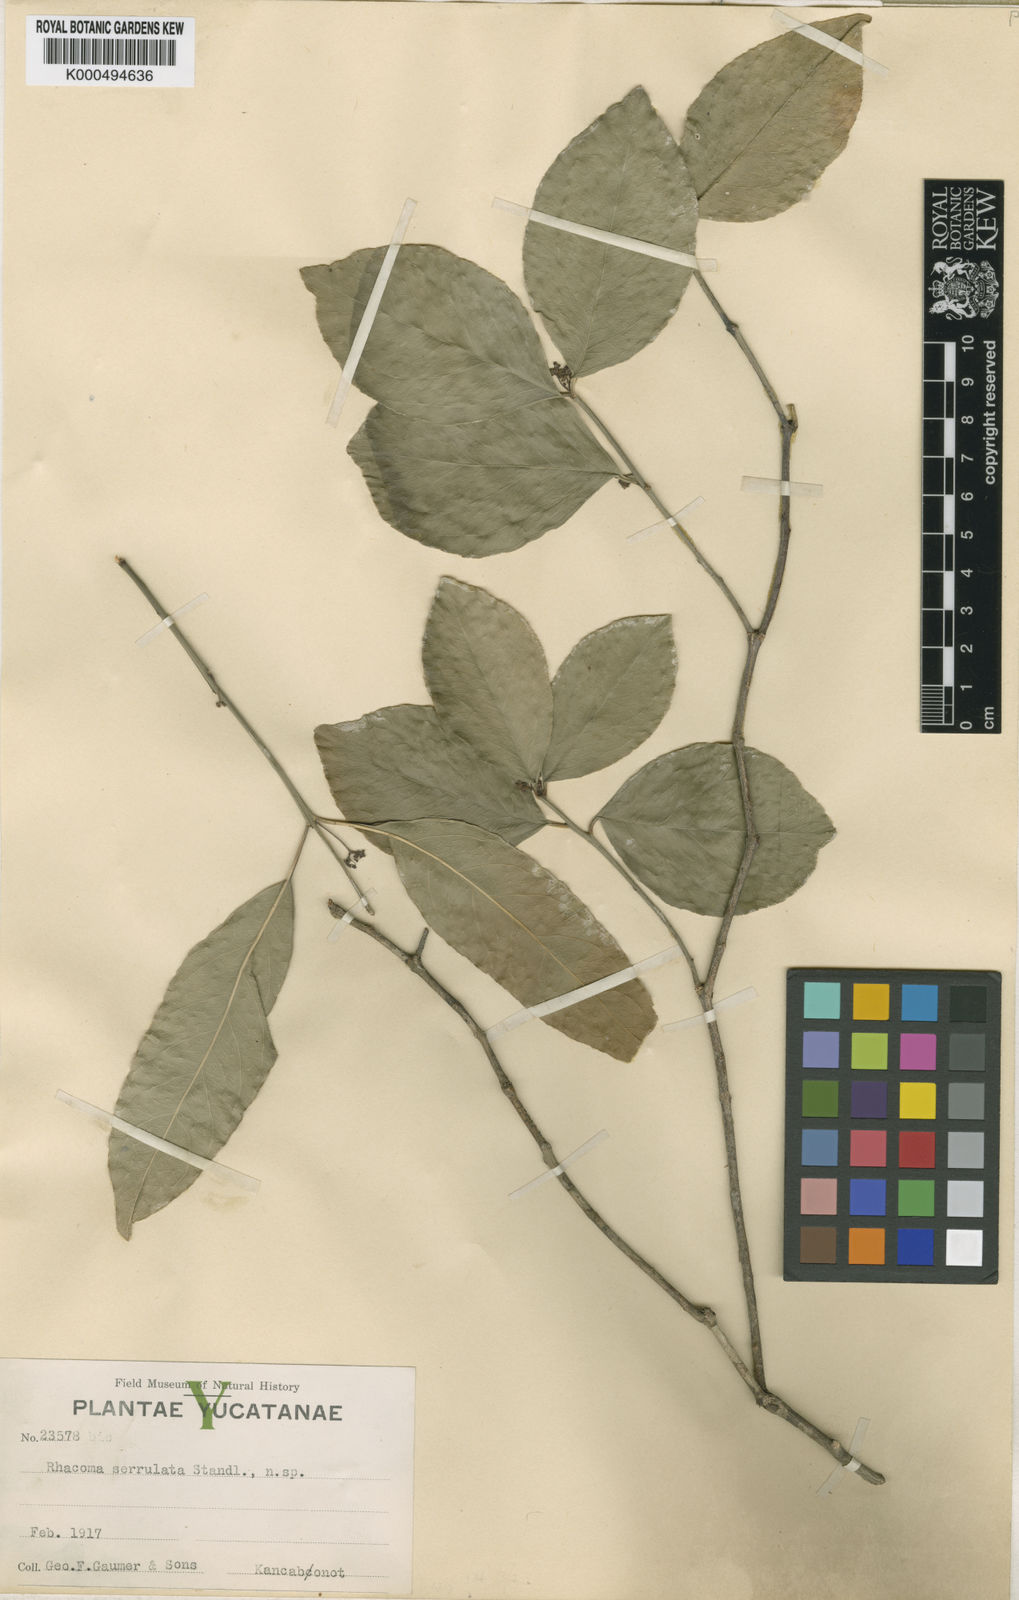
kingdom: Plantae
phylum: Tracheophyta
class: Magnoliopsida
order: Celastrales
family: Celastraceae
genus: Crossopetalum
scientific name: Crossopetalum serrulatum
